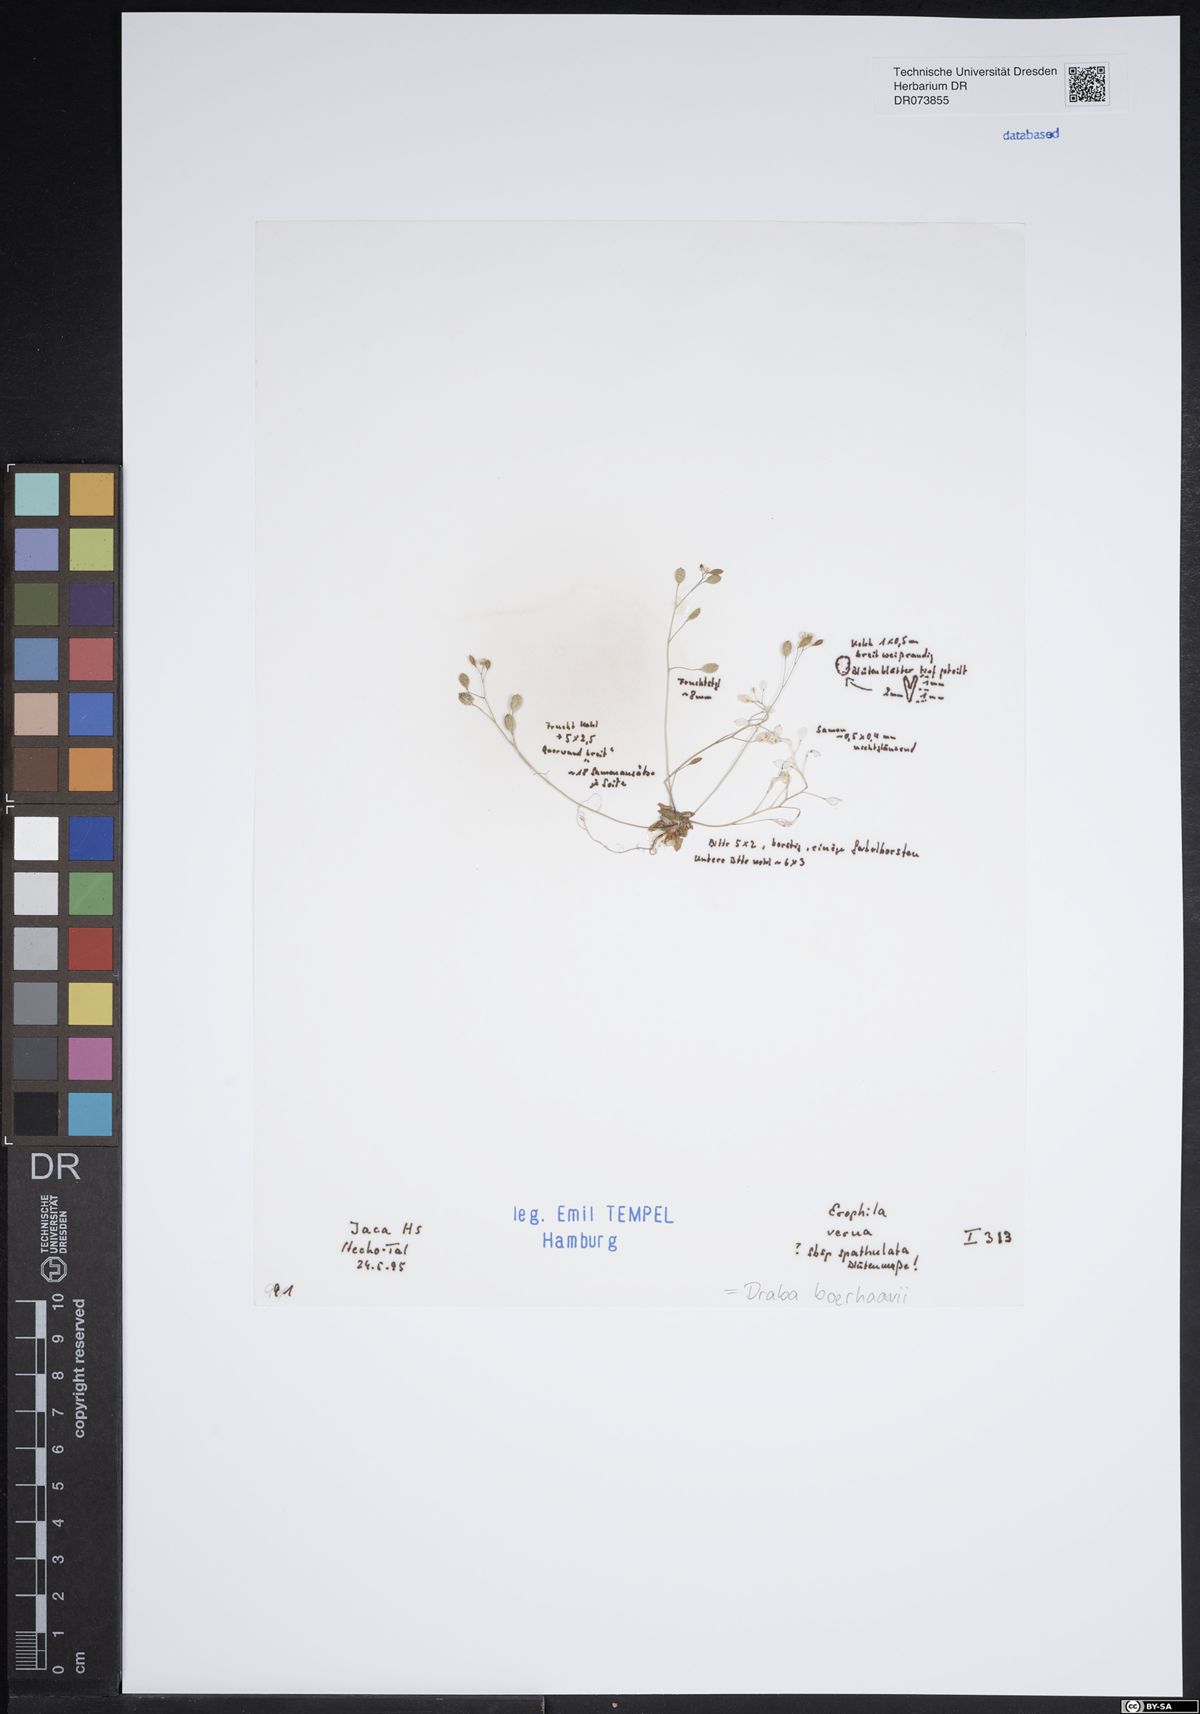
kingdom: Plantae
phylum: Tracheophyta
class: Magnoliopsida
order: Brassicales
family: Brassicaceae
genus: Draba
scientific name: Draba verna
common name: Spring draba
